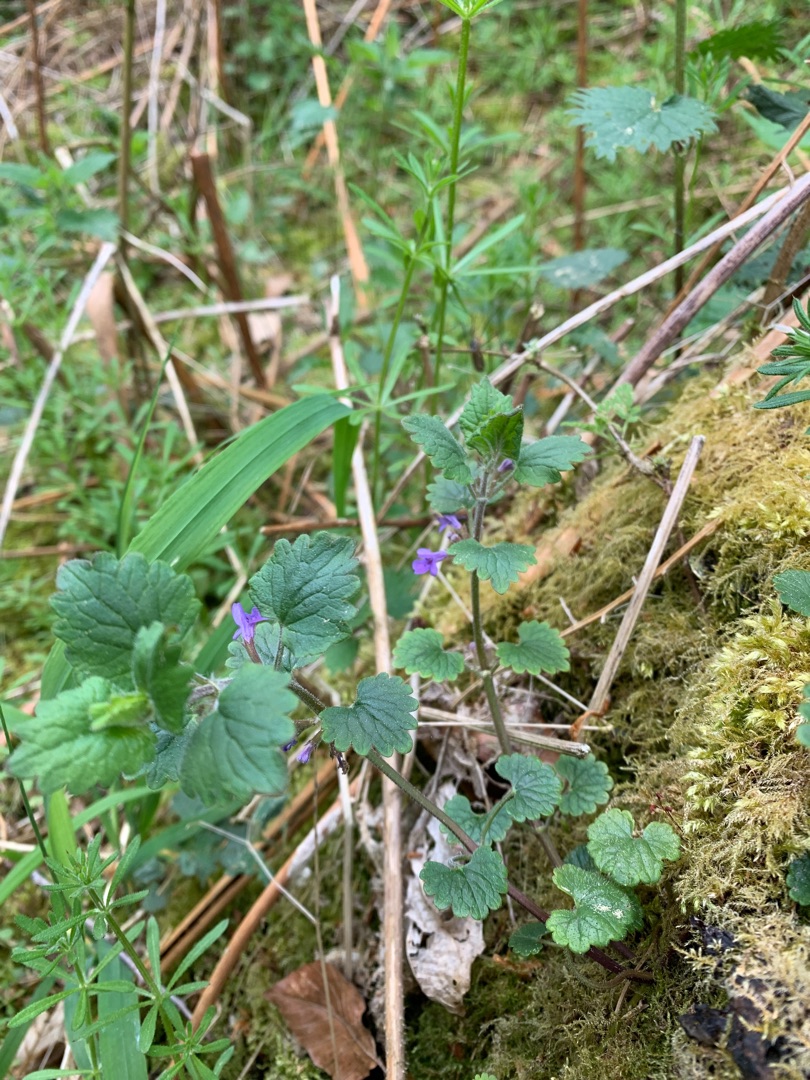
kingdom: Plantae
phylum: Tracheophyta
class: Magnoliopsida
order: Lamiales
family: Lamiaceae
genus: Glechoma
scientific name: Glechoma hederacea
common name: Korsknap
